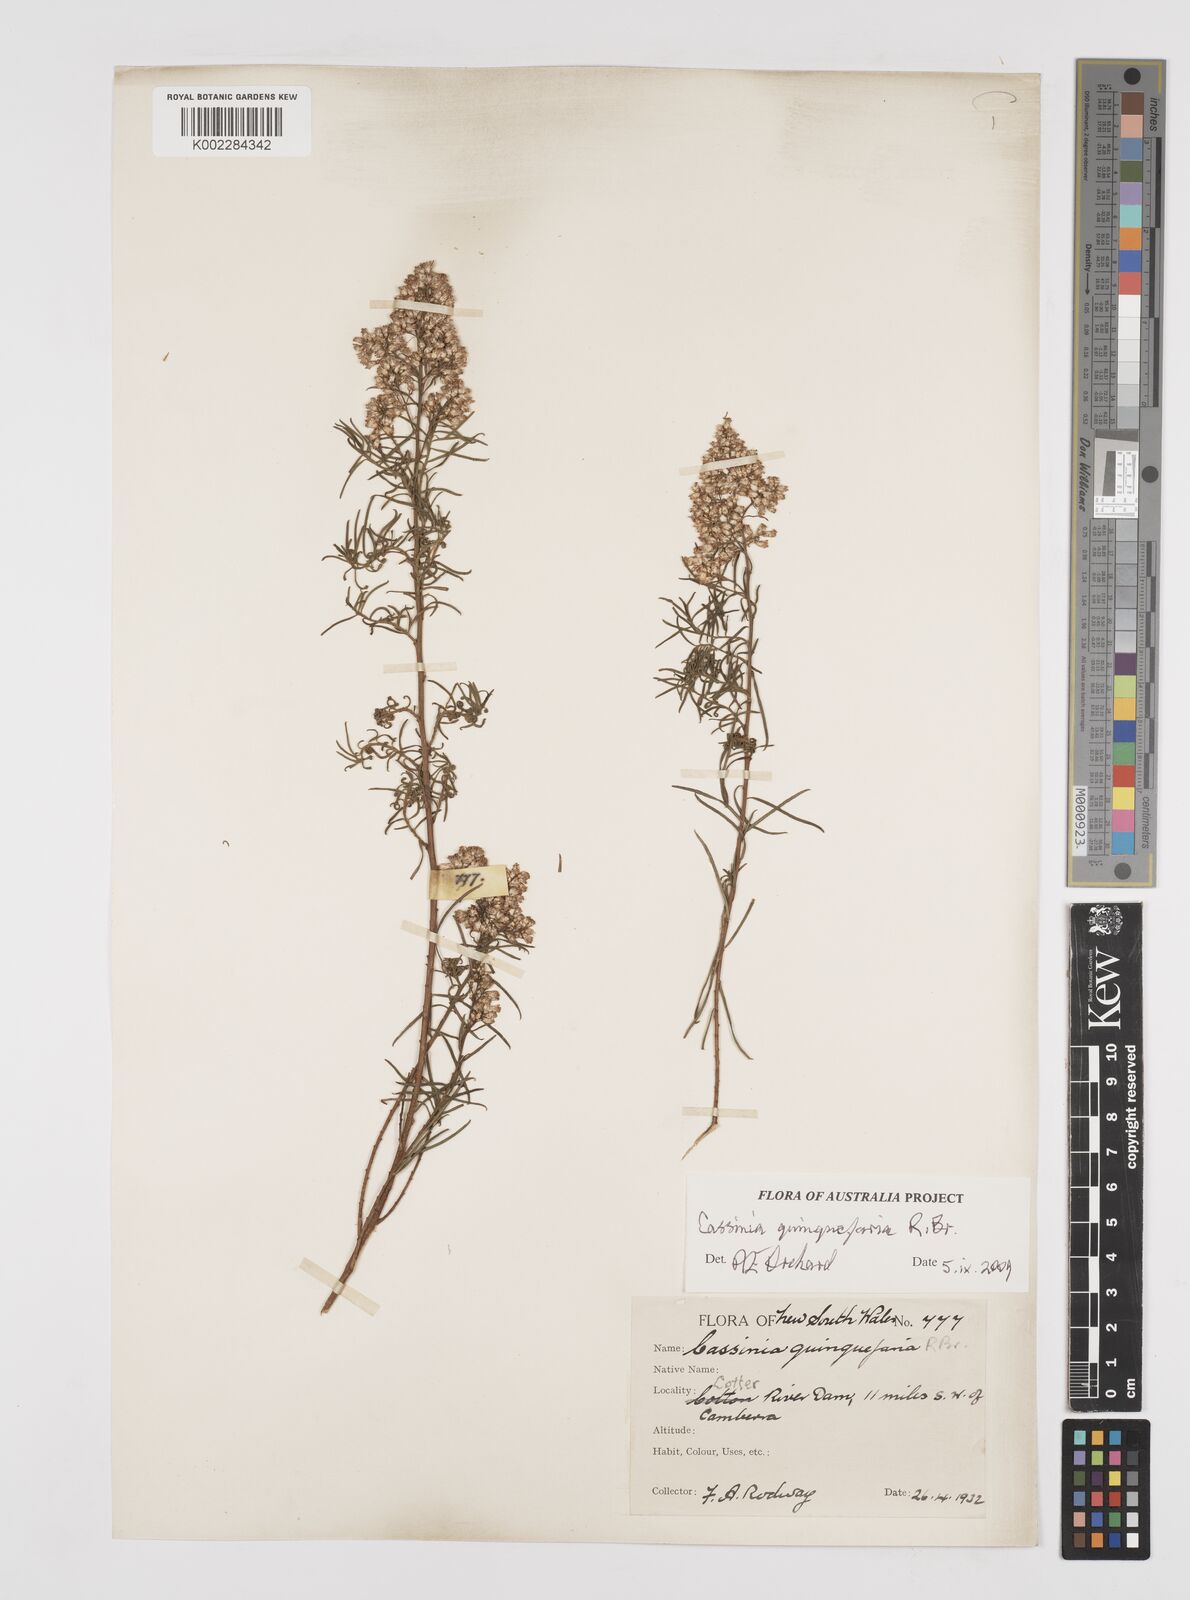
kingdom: Plantae
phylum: Tracheophyta
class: Magnoliopsida
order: Asterales
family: Asteraceae
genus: Cassinia
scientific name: Cassinia quinquefaria
